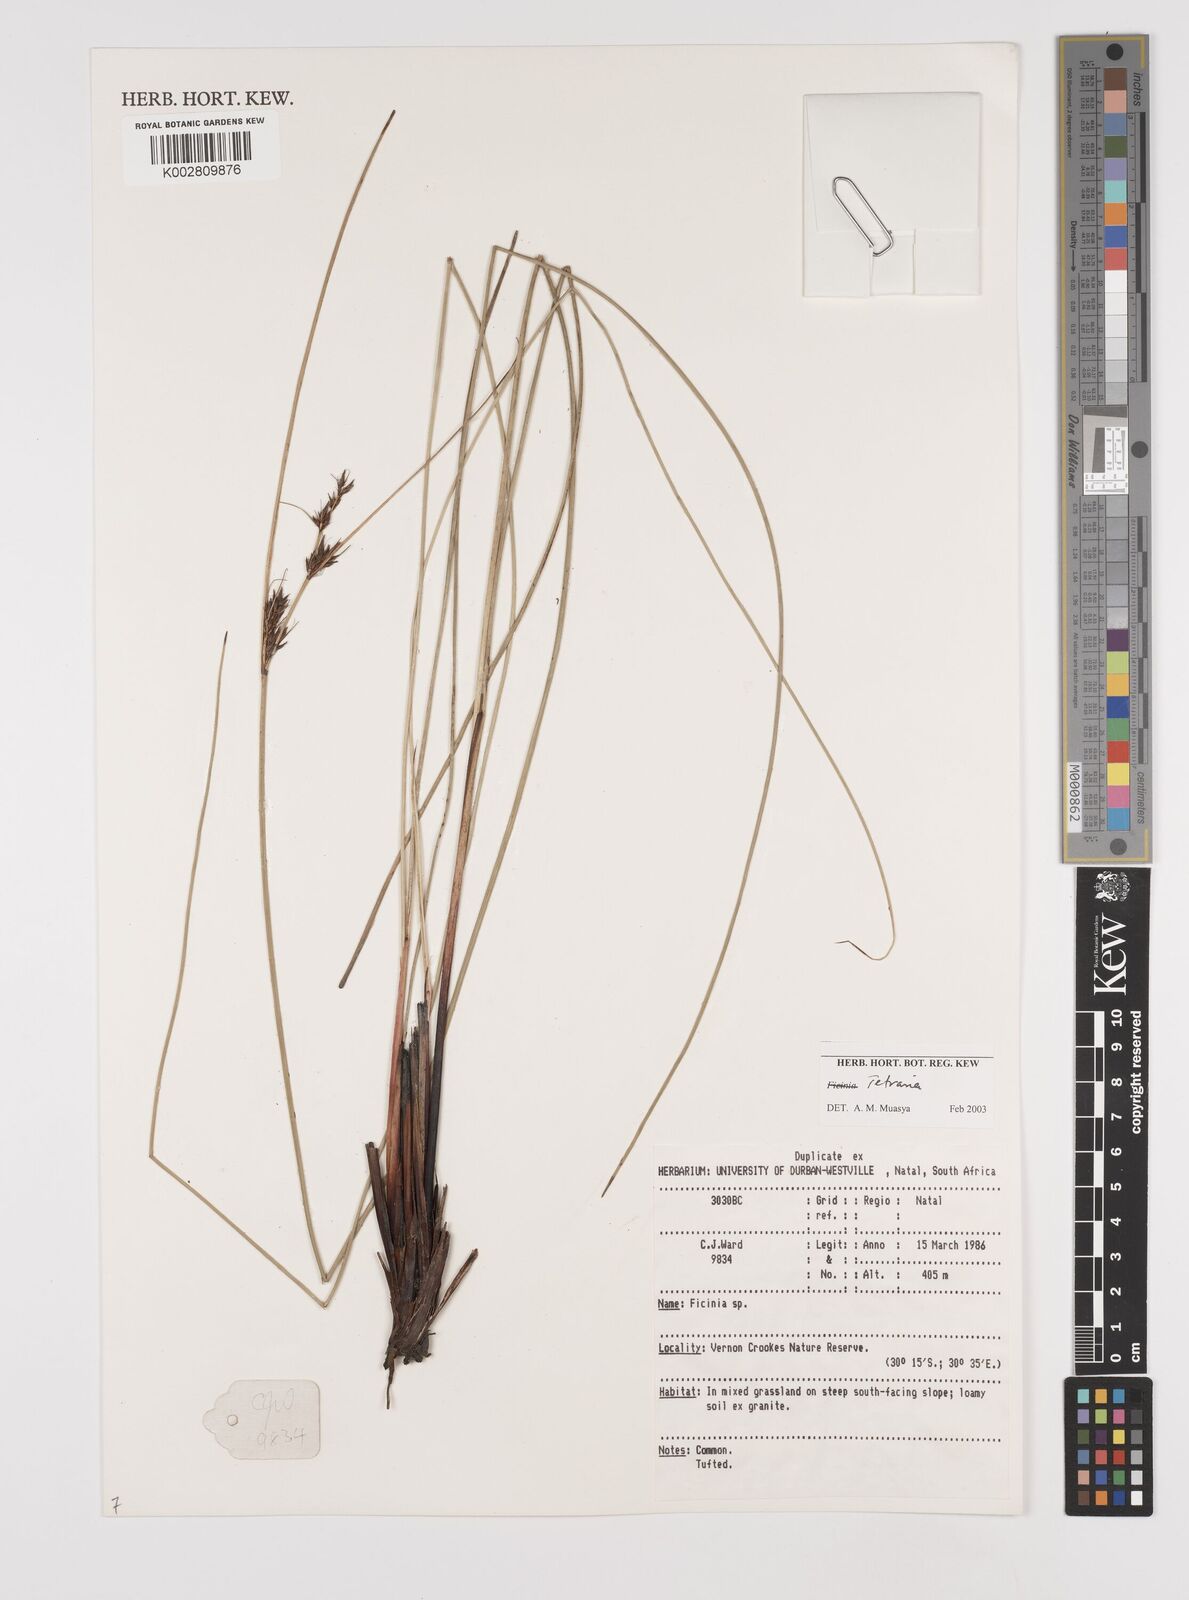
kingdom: Plantae
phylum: Tracheophyta
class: Liliopsida
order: Poales
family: Cyperaceae
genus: Schoenus
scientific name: Schoenus
